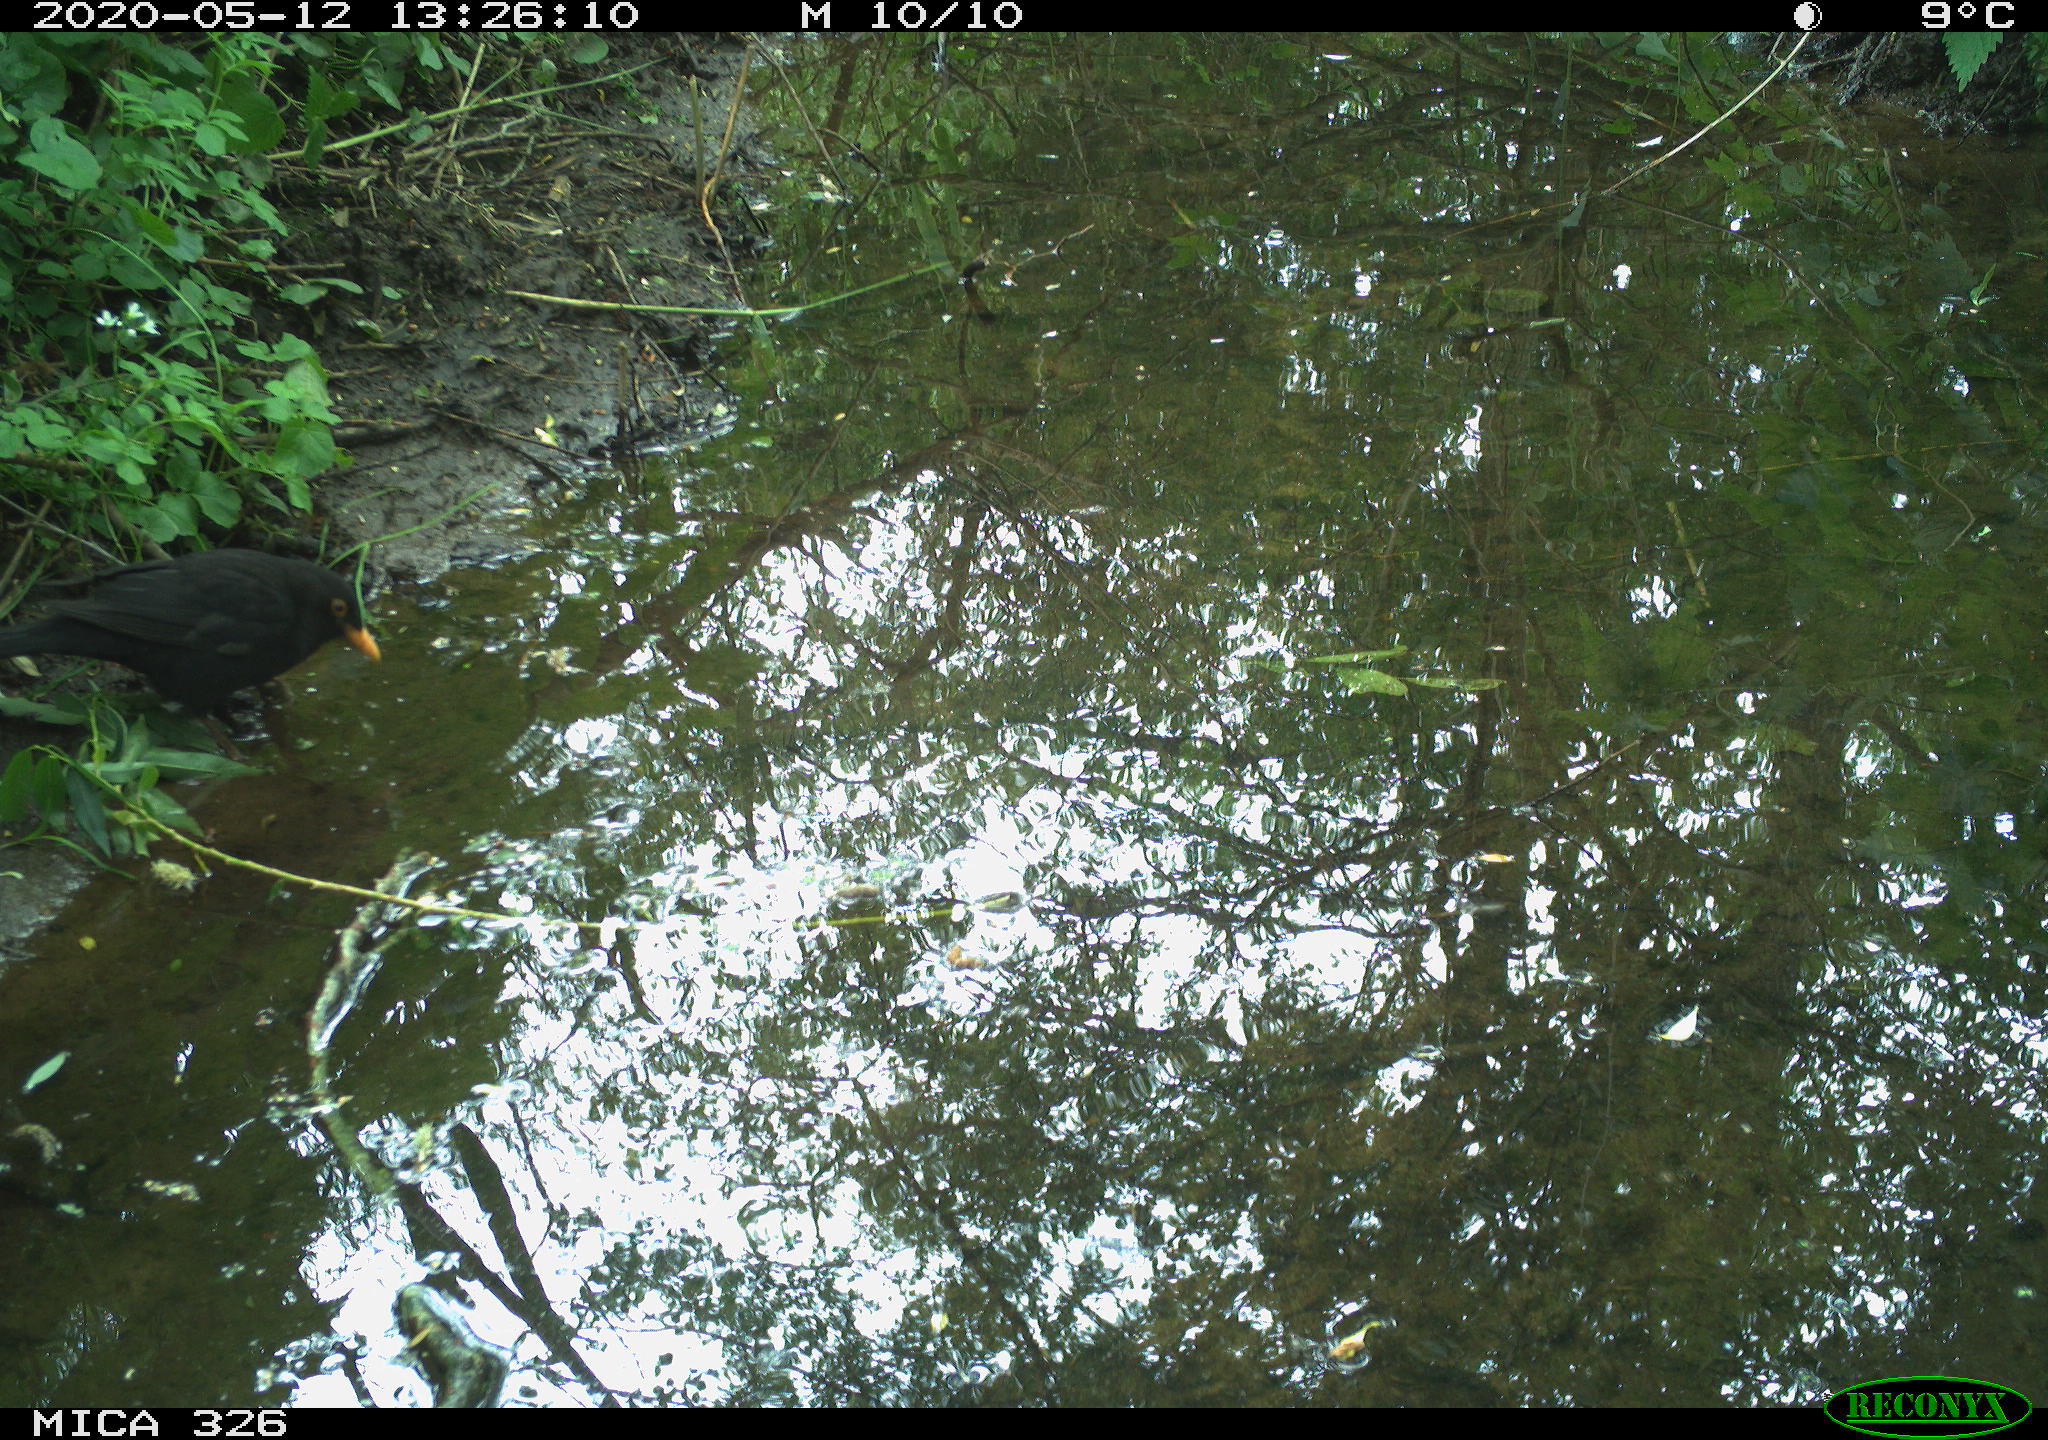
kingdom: Animalia
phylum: Chordata
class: Aves
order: Passeriformes
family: Turdidae
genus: Turdus
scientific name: Turdus merula
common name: Common blackbird
